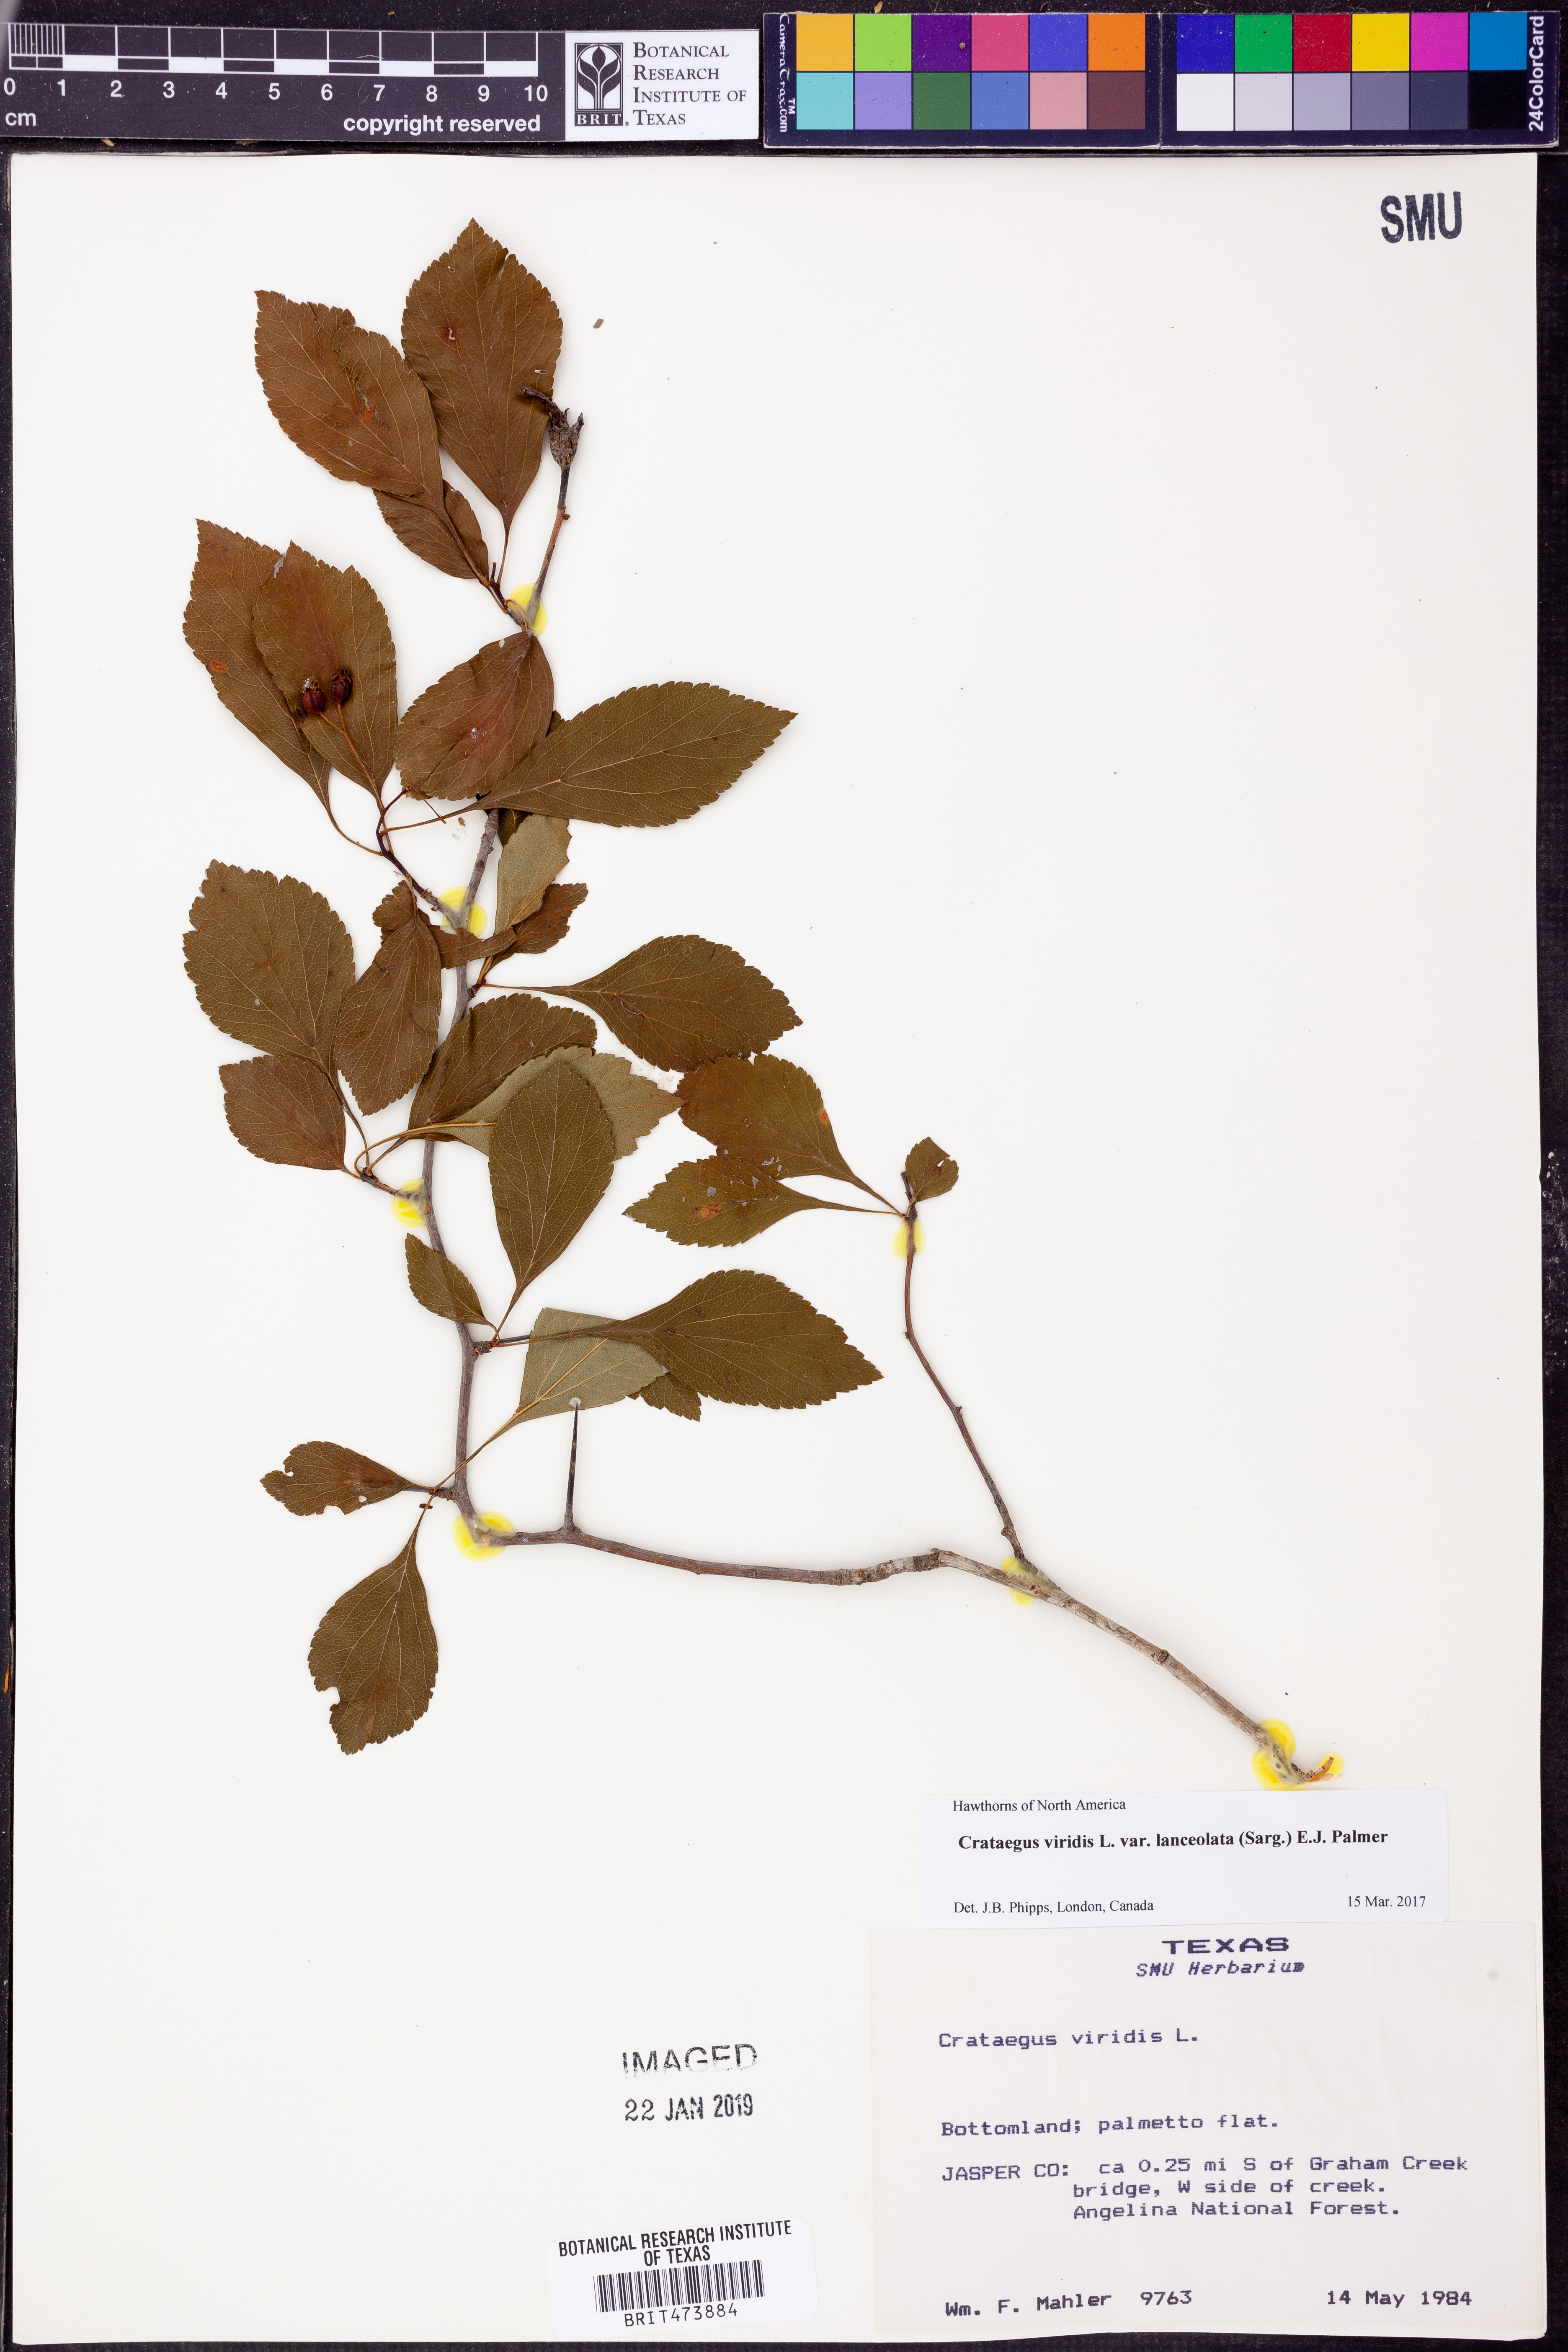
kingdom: Plantae
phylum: Tracheophyta
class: Magnoliopsida
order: Rosales
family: Rosaceae
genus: Crataegus
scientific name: Crataegus viridis
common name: Southernthorn
